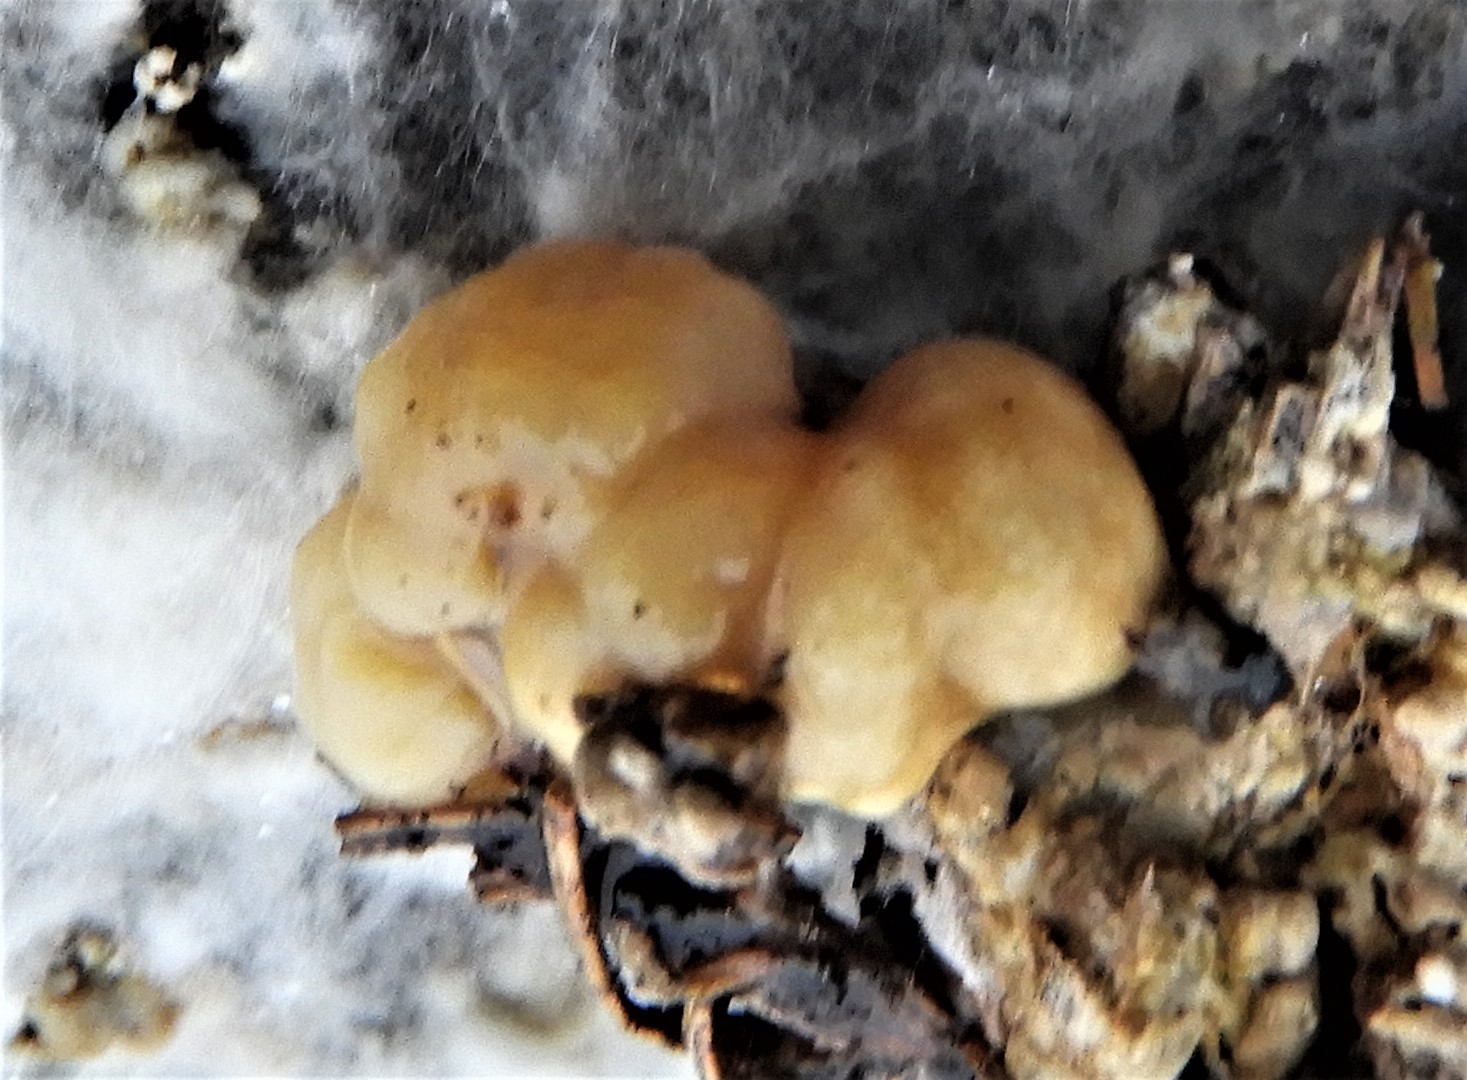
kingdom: Fungi
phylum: Ascomycota
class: Sordariomycetes
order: Xylariales
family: Hypoxylaceae
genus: Nodulisporium
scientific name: Nodulisporium cecidiogenes
